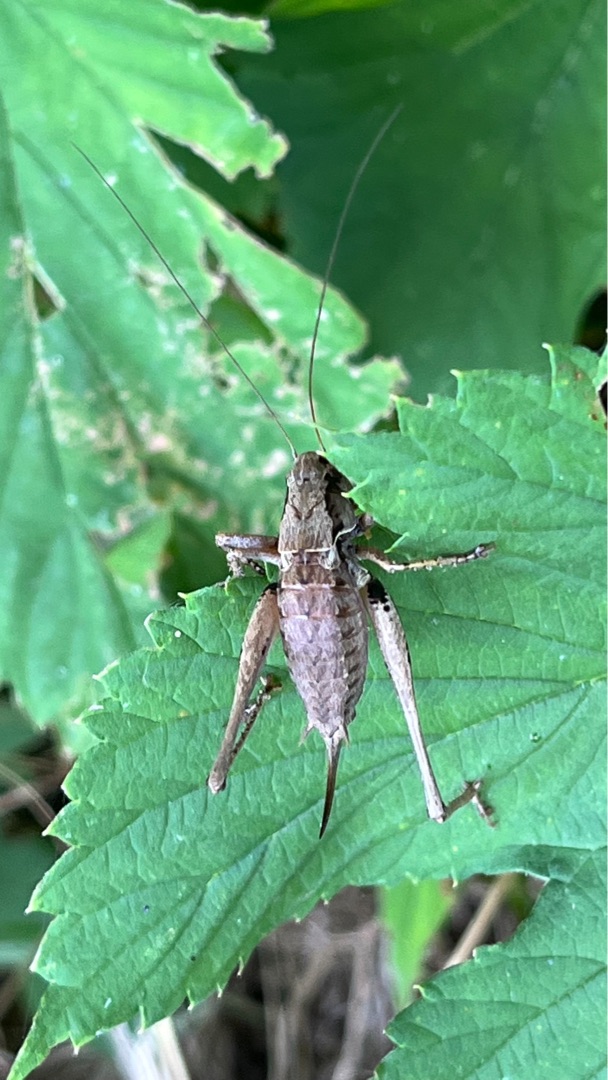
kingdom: Animalia
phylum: Arthropoda
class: Insecta
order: Orthoptera
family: Tettigoniidae
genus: Pholidoptera
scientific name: Pholidoptera griseoaptera
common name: Buskgræshoppe
